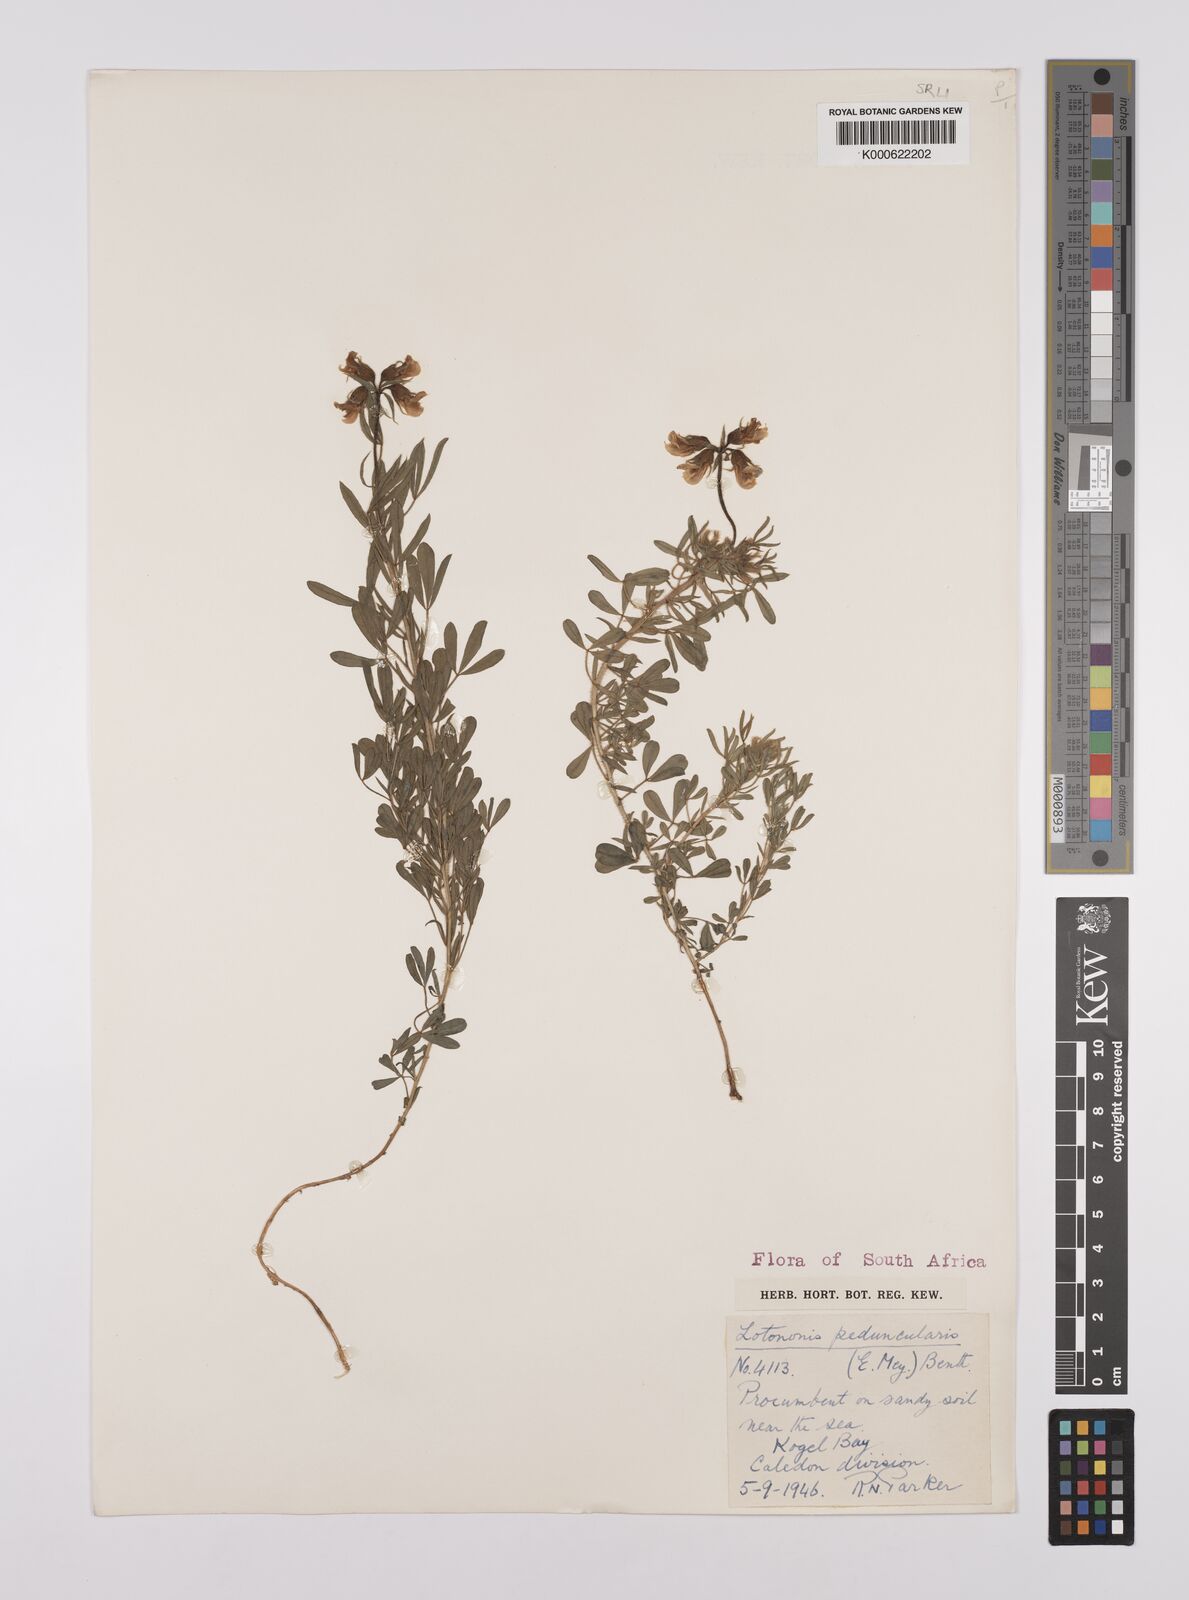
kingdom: Plantae
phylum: Tracheophyta
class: Magnoliopsida
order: Fabales
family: Fabaceae
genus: Lotononis
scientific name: Lotononis involucrata
